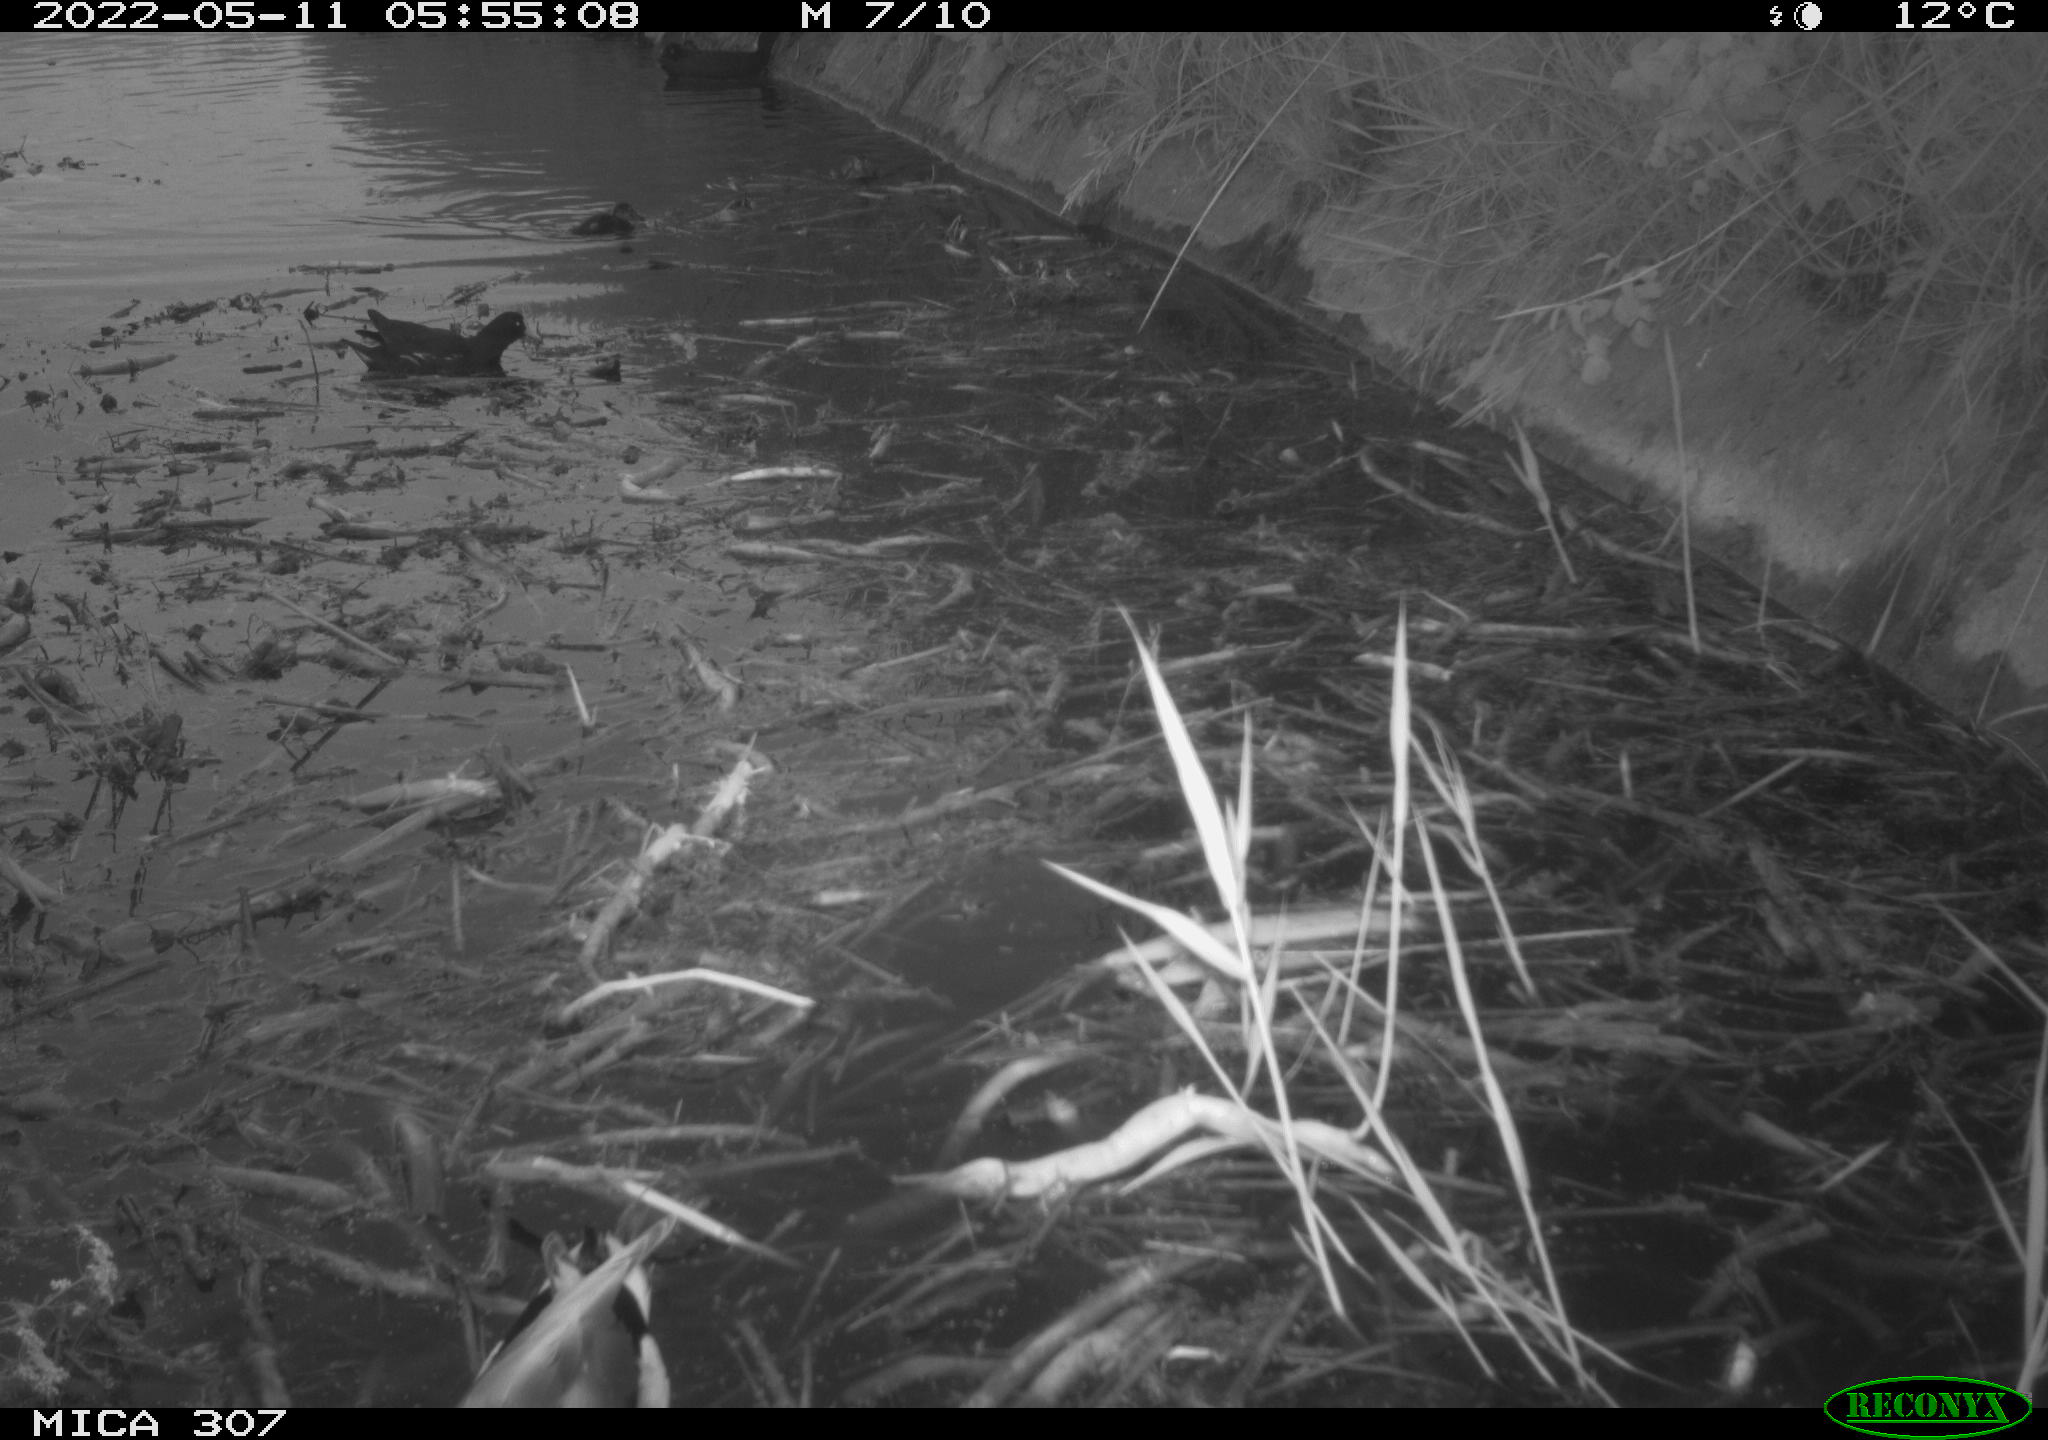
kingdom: Animalia
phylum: Chordata
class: Aves
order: Gruiformes
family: Rallidae
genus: Gallinula
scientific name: Gallinula chloropus
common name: Common moorhen
